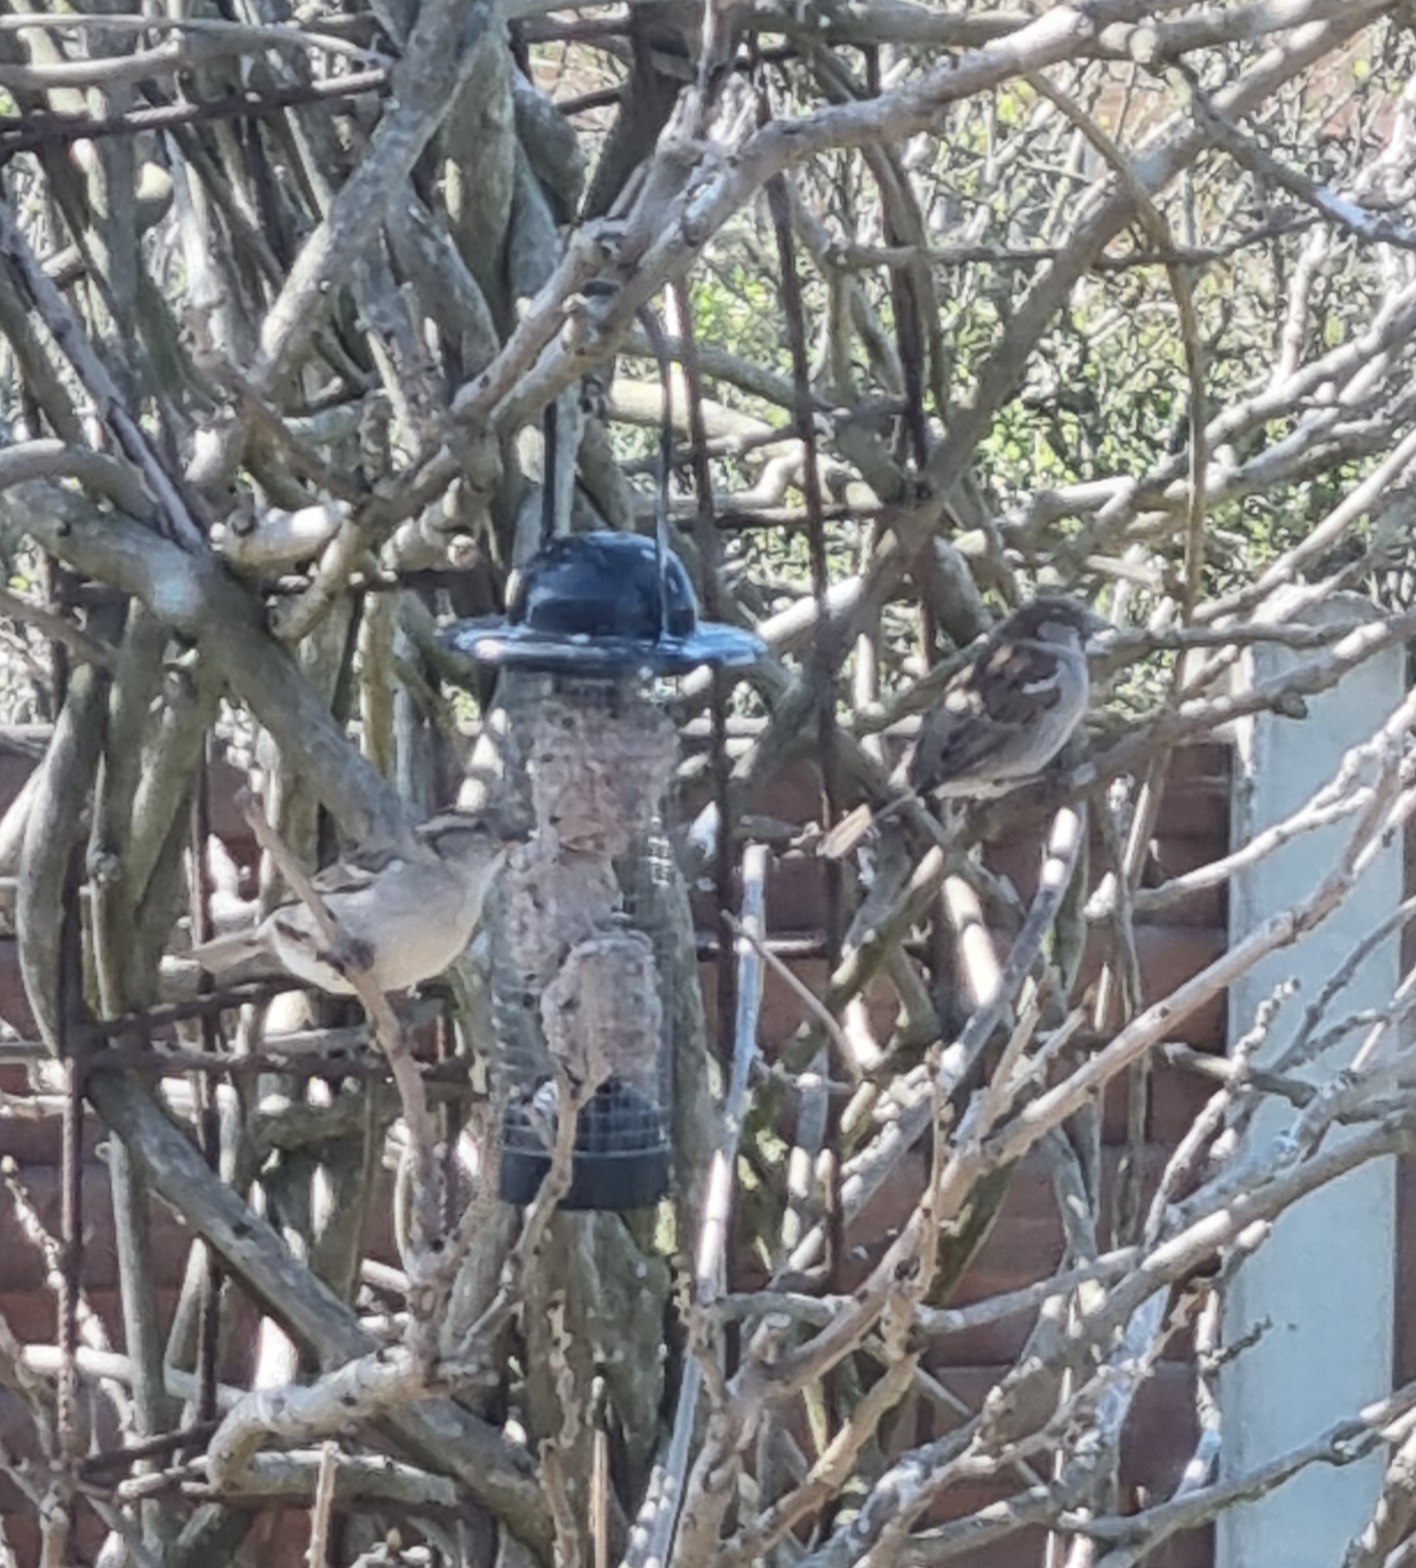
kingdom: Animalia
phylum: Chordata
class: Aves
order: Passeriformes
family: Passeridae
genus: Passer
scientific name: Passer domesticus
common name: Gråspurv
